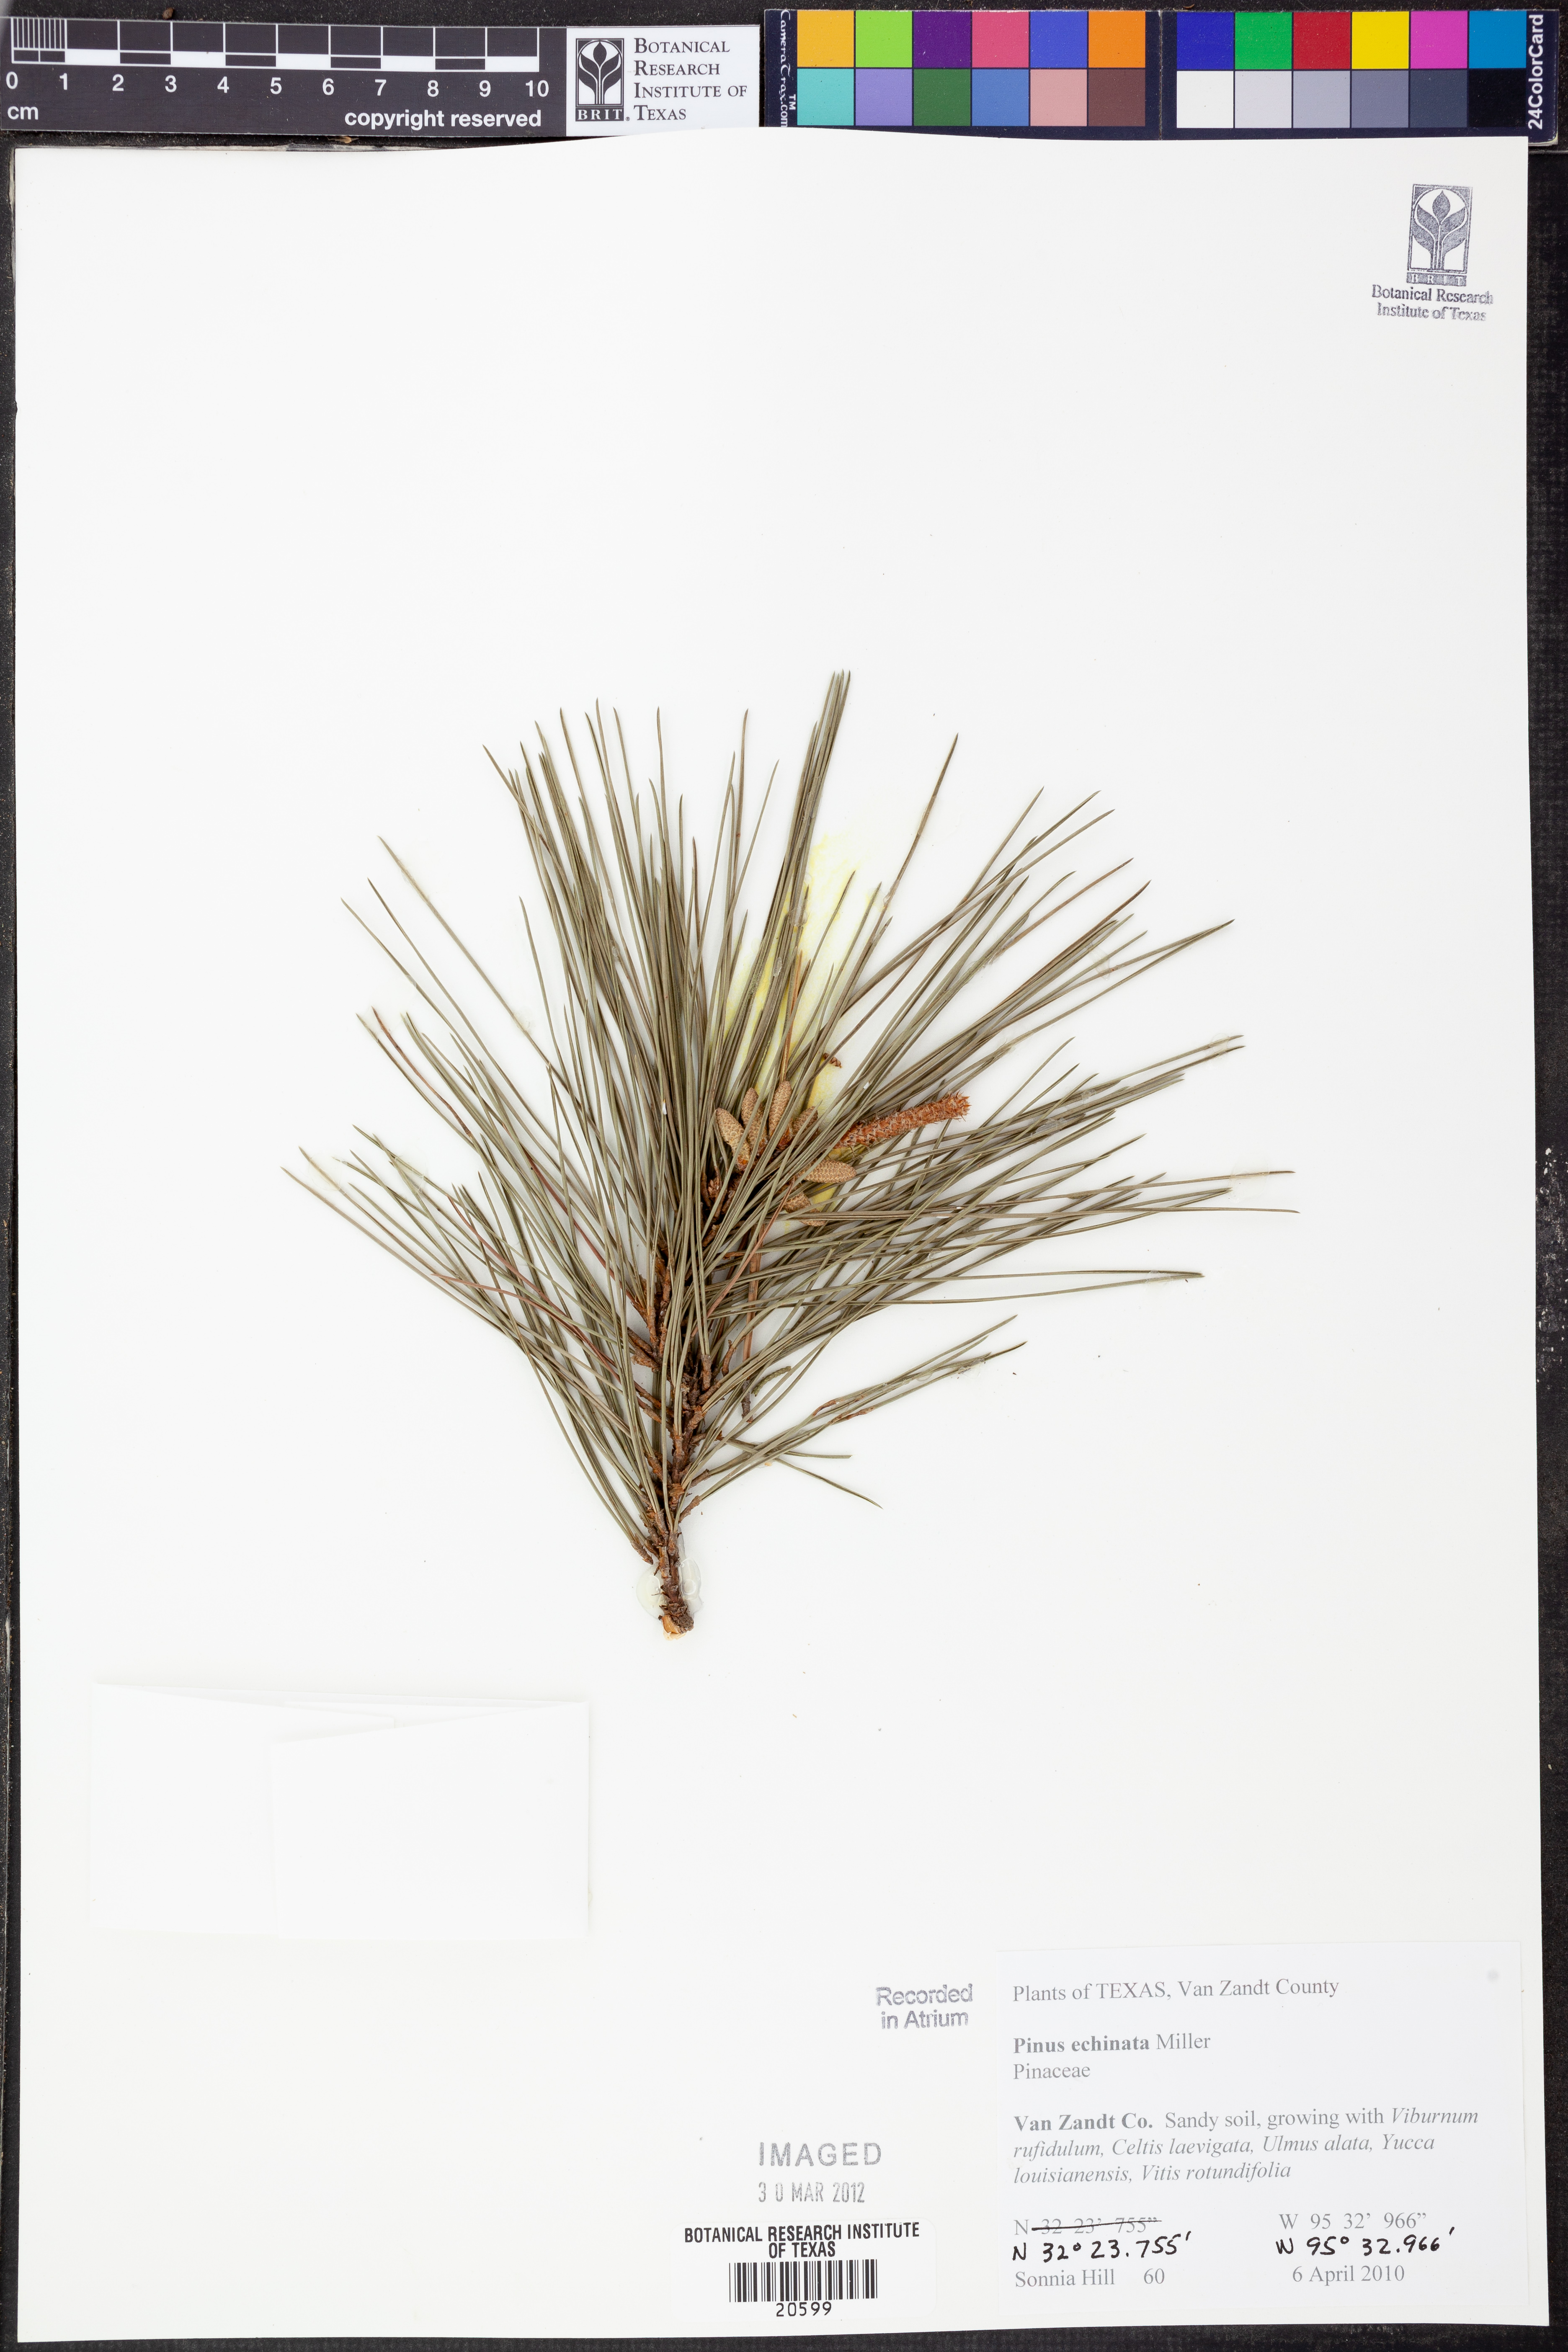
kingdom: Plantae
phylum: Tracheophyta
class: Pinopsida
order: Pinales
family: Pinaceae
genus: Pinus
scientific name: Pinus echinata
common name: Shortleaf pine
